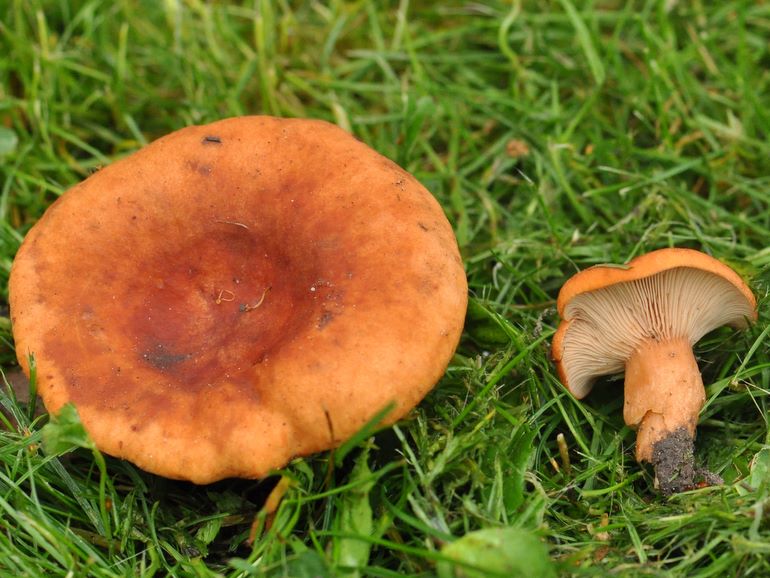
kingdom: Fungi
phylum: Basidiomycota
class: Agaricomycetes
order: Russulales
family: Russulaceae
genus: Lactarius
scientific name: Lactarius fulvissimus
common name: ræve-mælkehat
